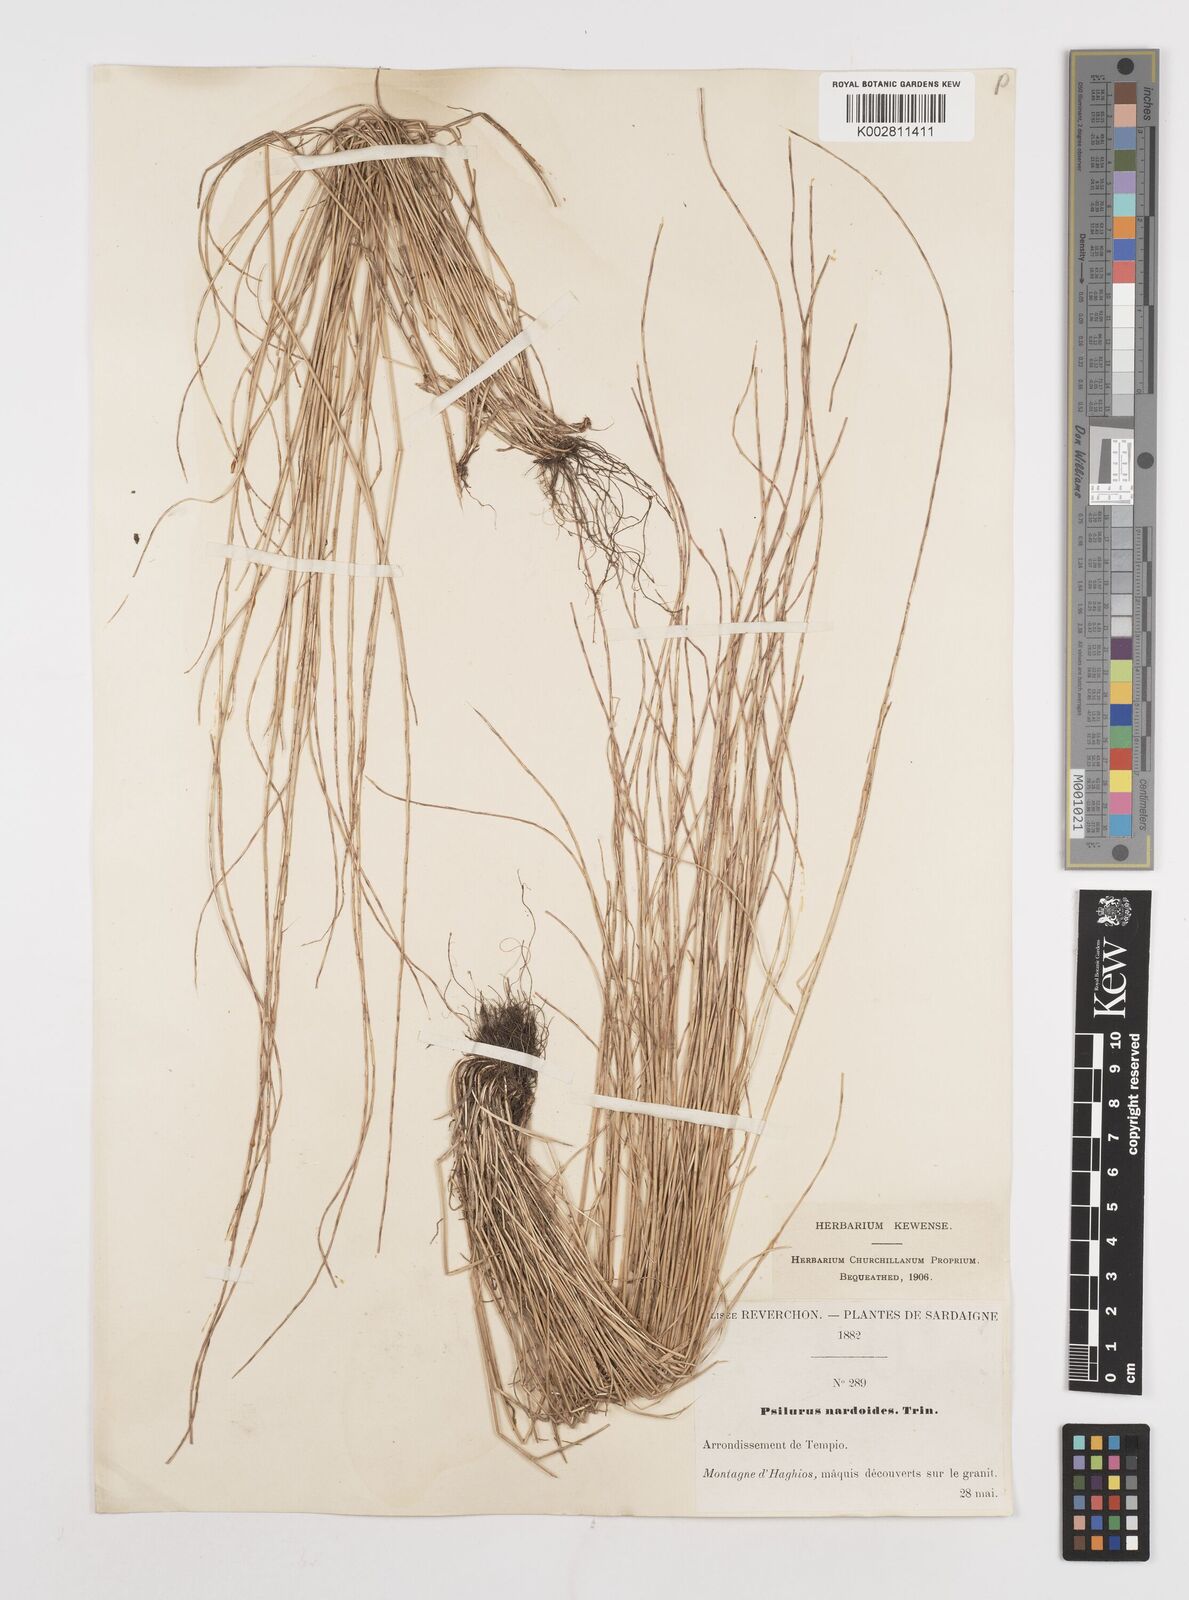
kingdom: Plantae
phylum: Tracheophyta
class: Liliopsida
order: Poales
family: Poaceae
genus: Festuca
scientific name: Festuca incurva
